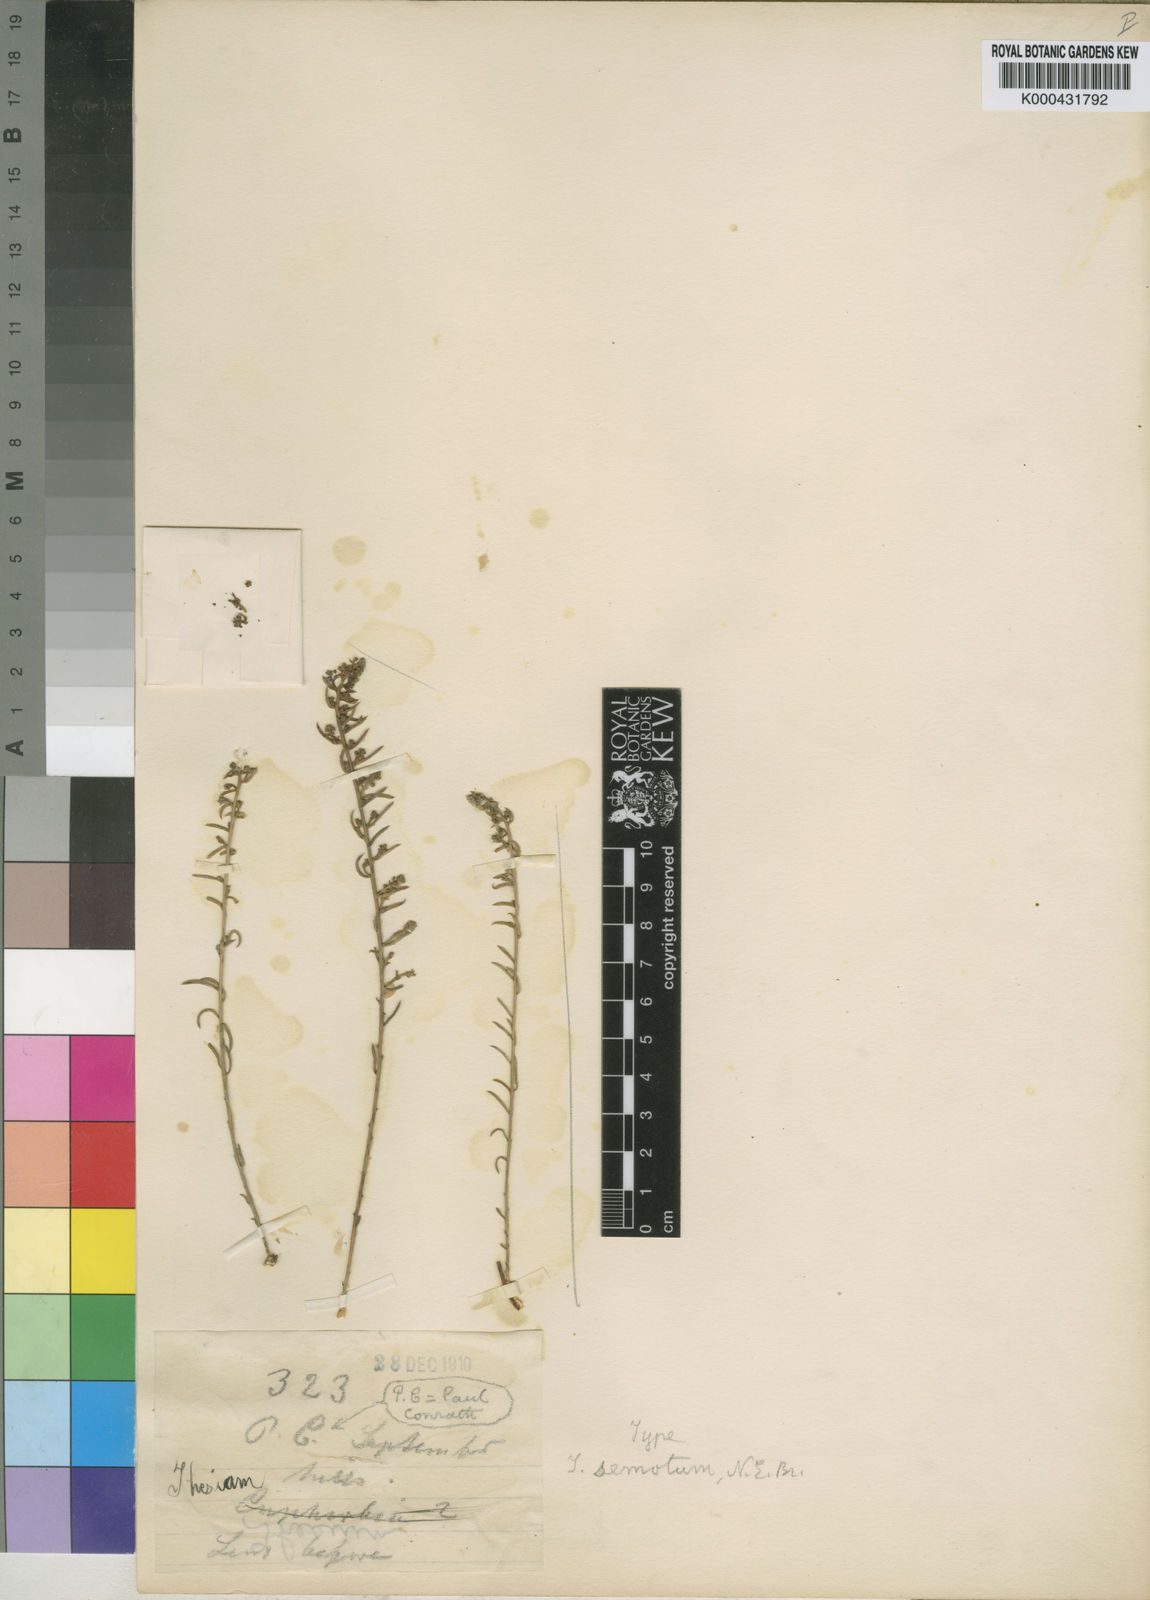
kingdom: Plantae
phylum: Tracheophyta
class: Magnoliopsida
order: Santalales
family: Thesiaceae
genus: Thesium
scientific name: Thesium semotum
